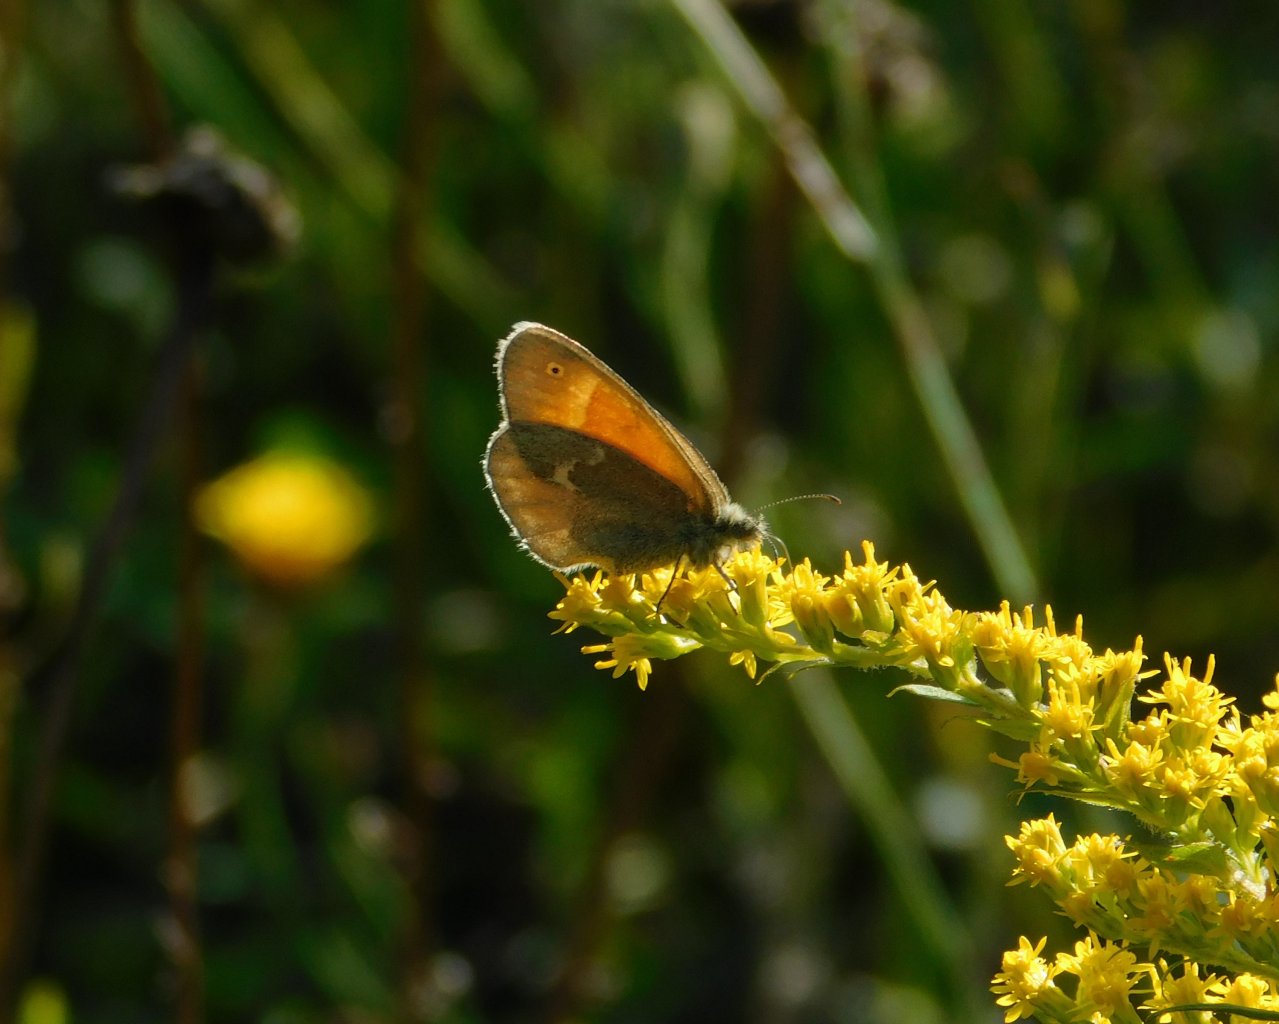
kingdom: Animalia
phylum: Arthropoda
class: Insecta
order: Lepidoptera
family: Nymphalidae
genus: Coenonympha
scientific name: Coenonympha tullia
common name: Large Heath
